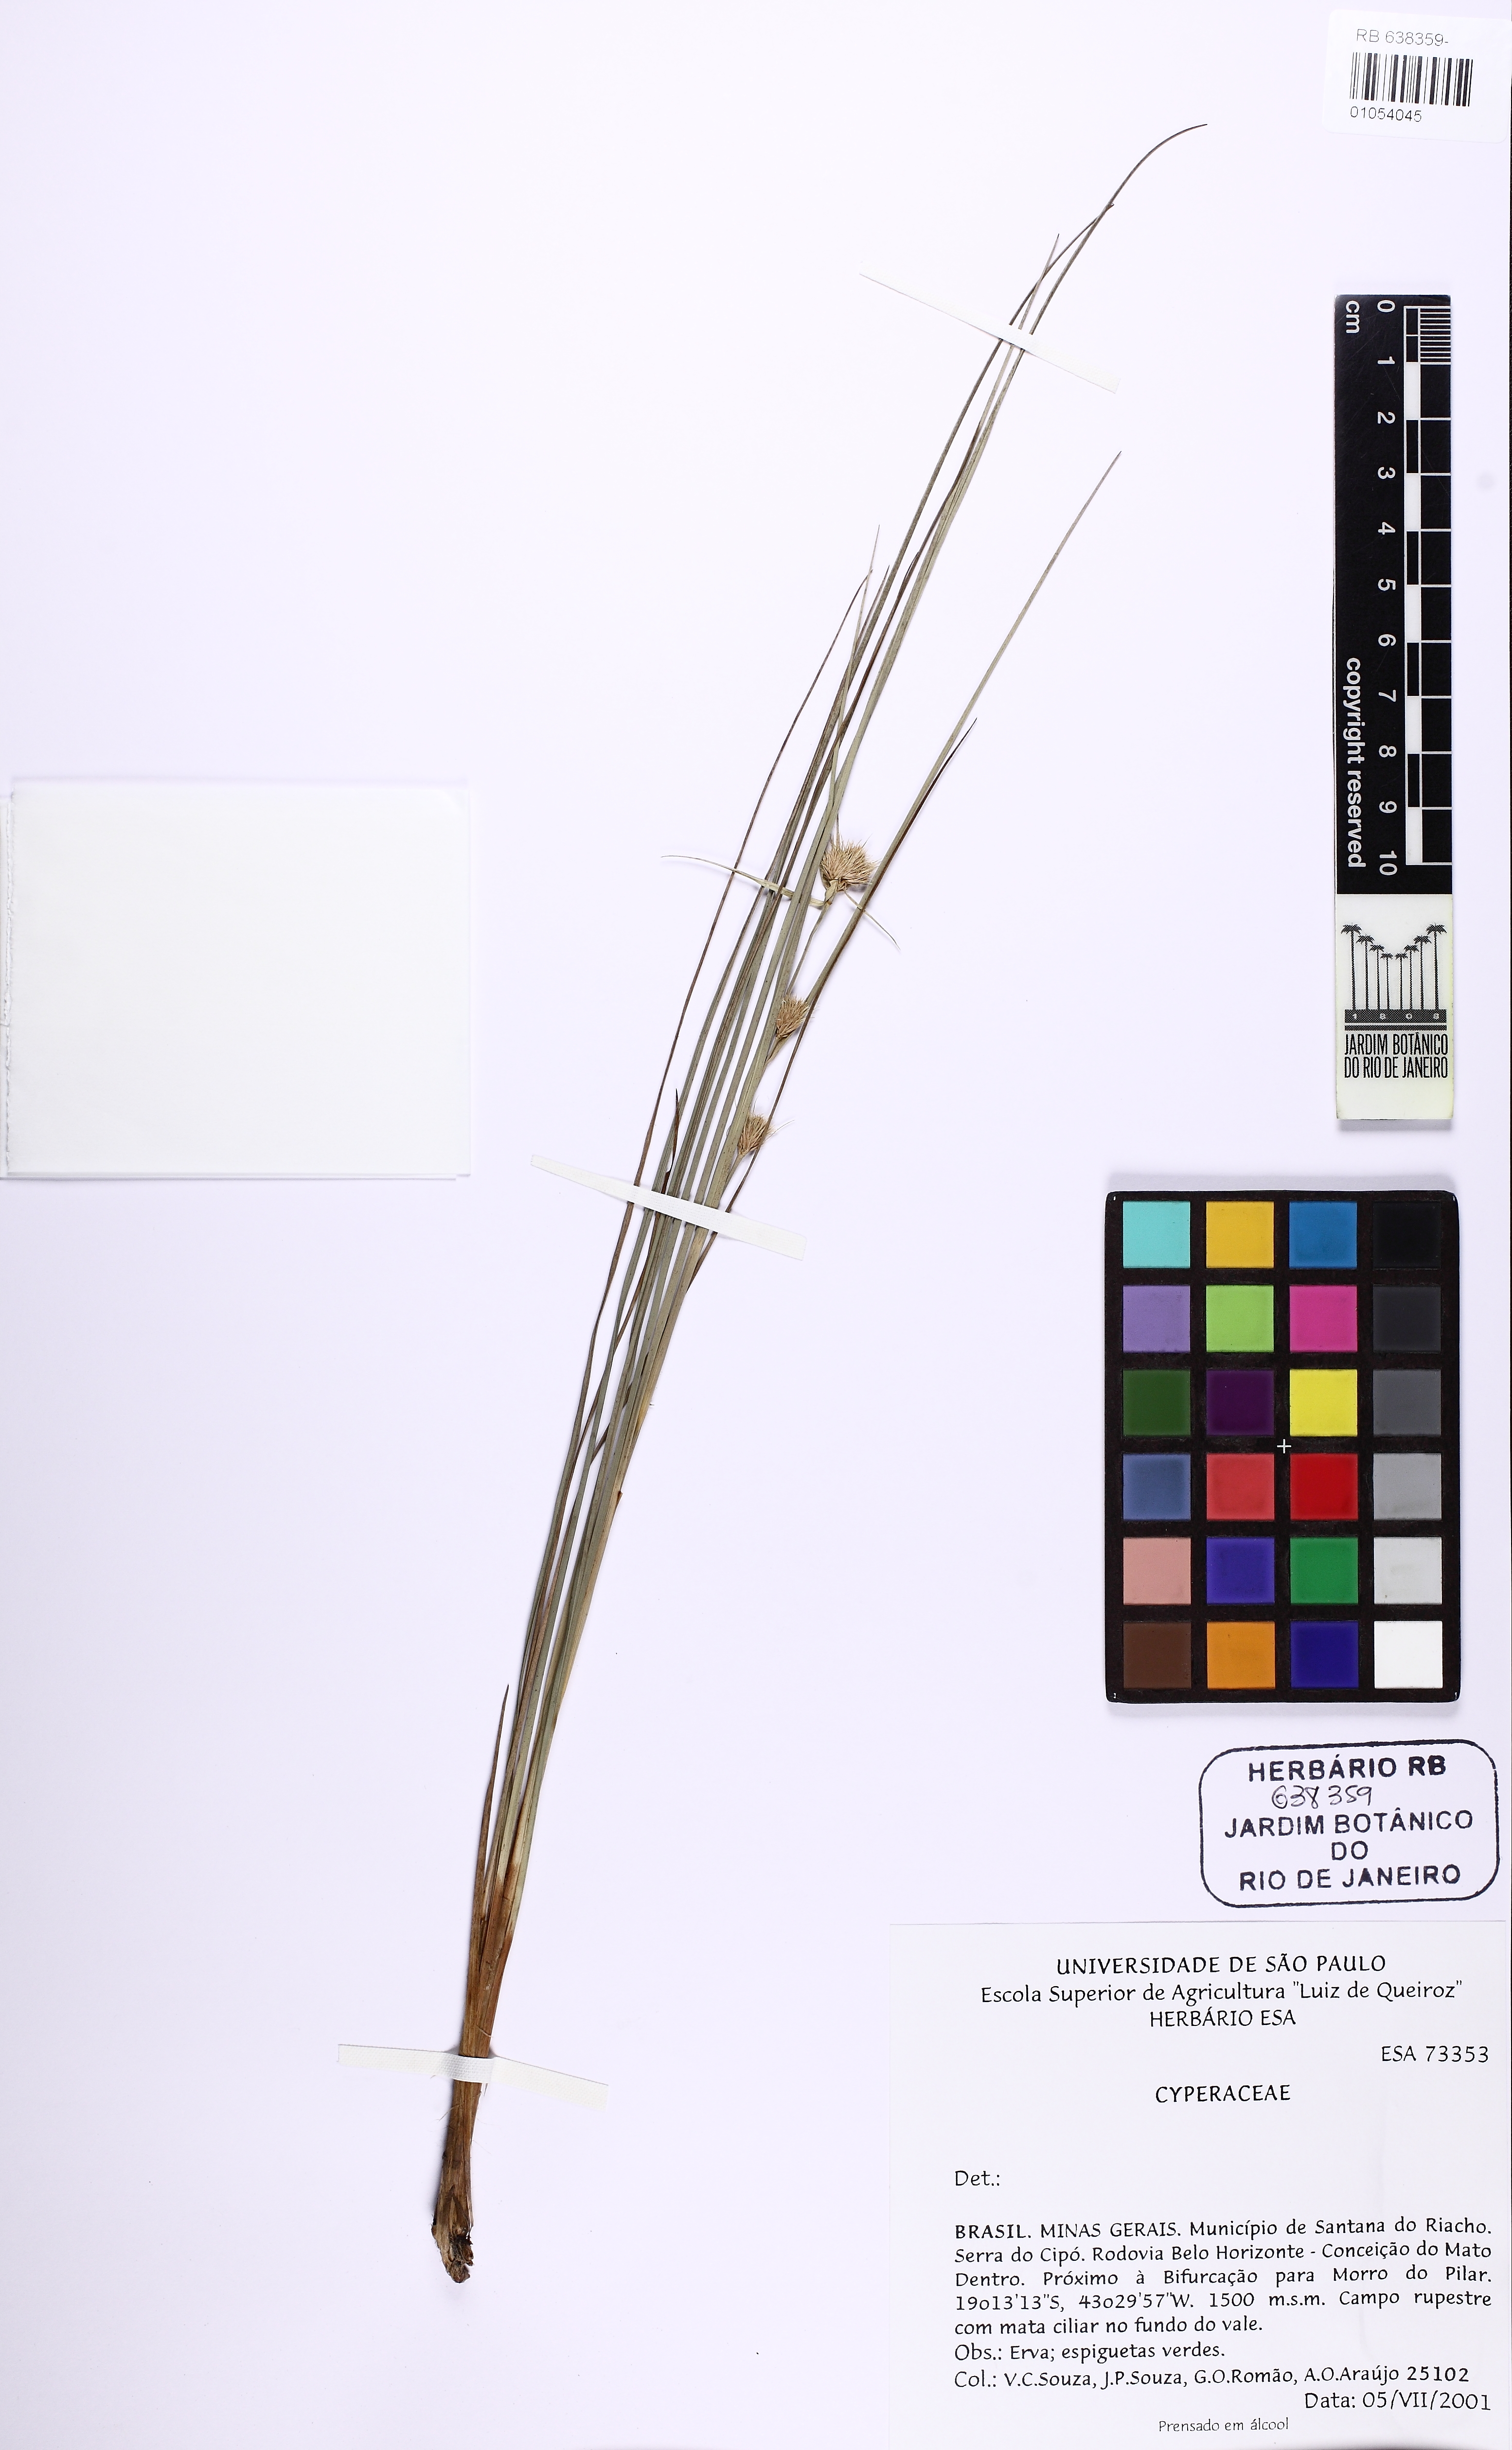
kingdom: Plantae
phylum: Tracheophyta
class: Liliopsida
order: Poales
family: Cyperaceae
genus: Rhynchospora
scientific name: Rhynchospora
